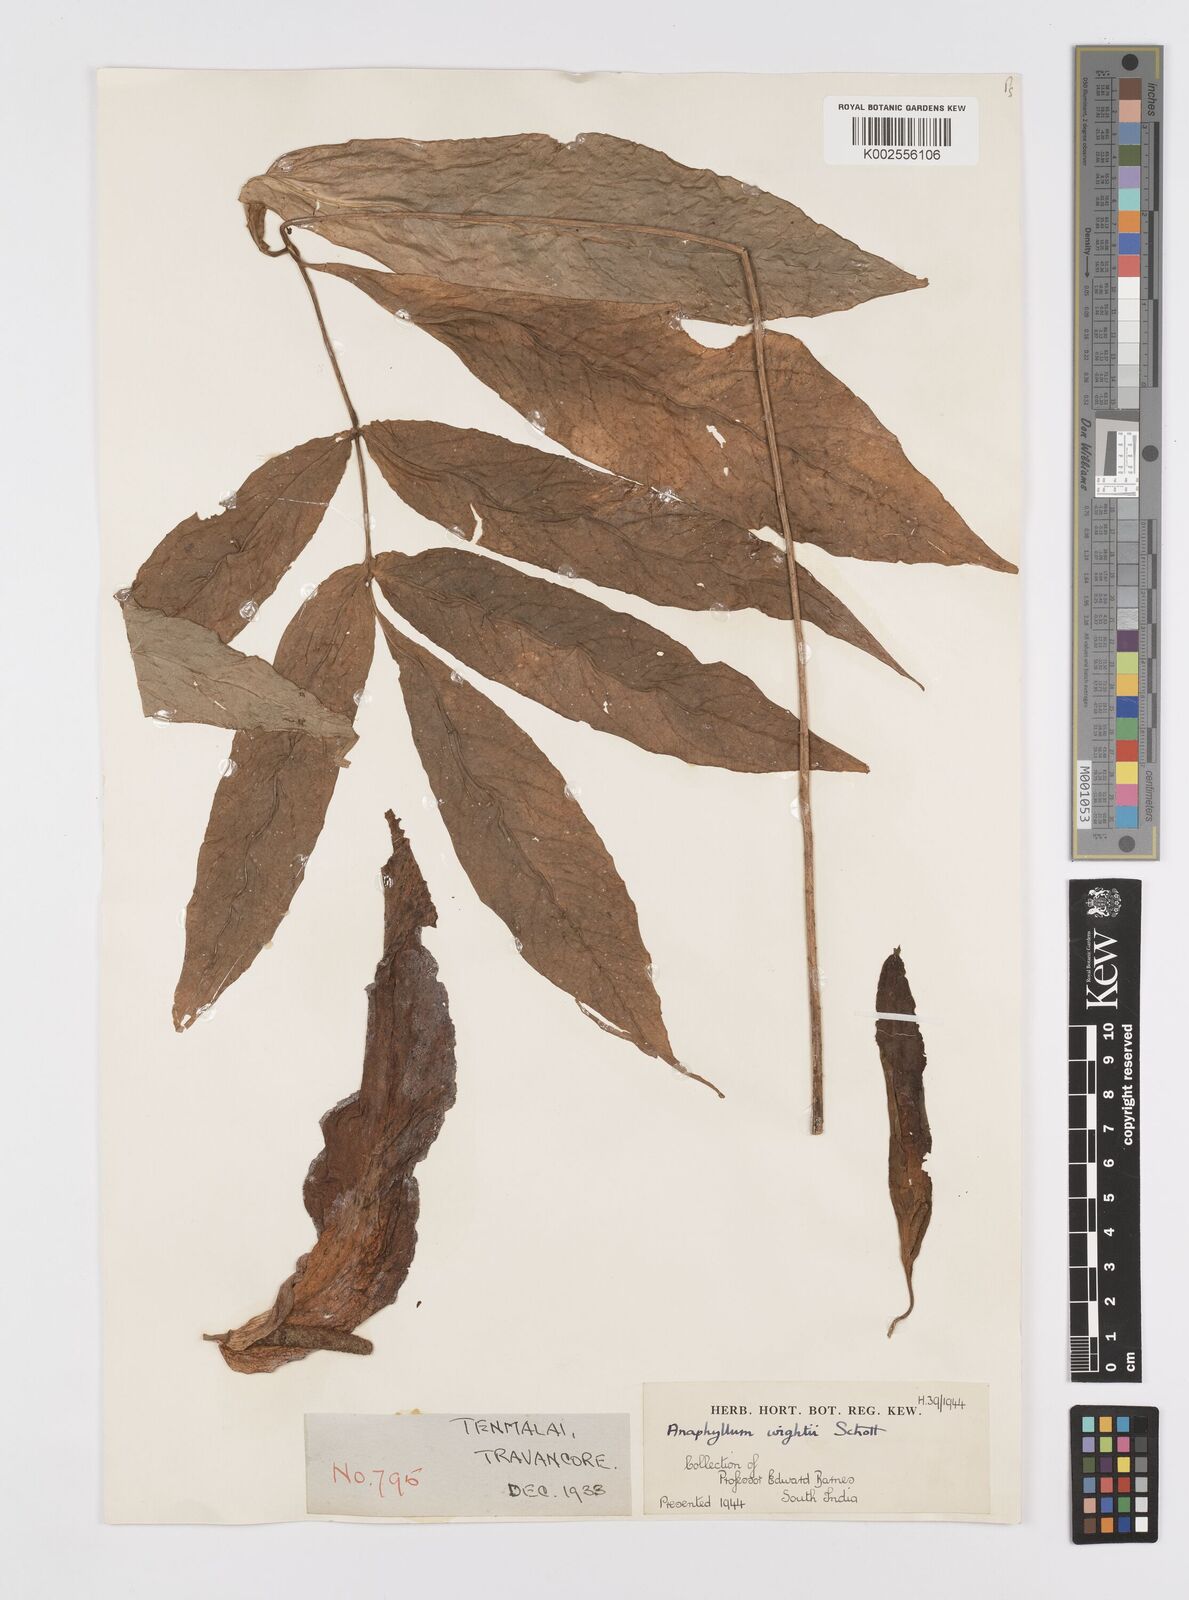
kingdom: Plantae
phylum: Tracheophyta
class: Liliopsida
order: Alismatales
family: Araceae
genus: Anaphyllum
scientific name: Anaphyllum wightii
